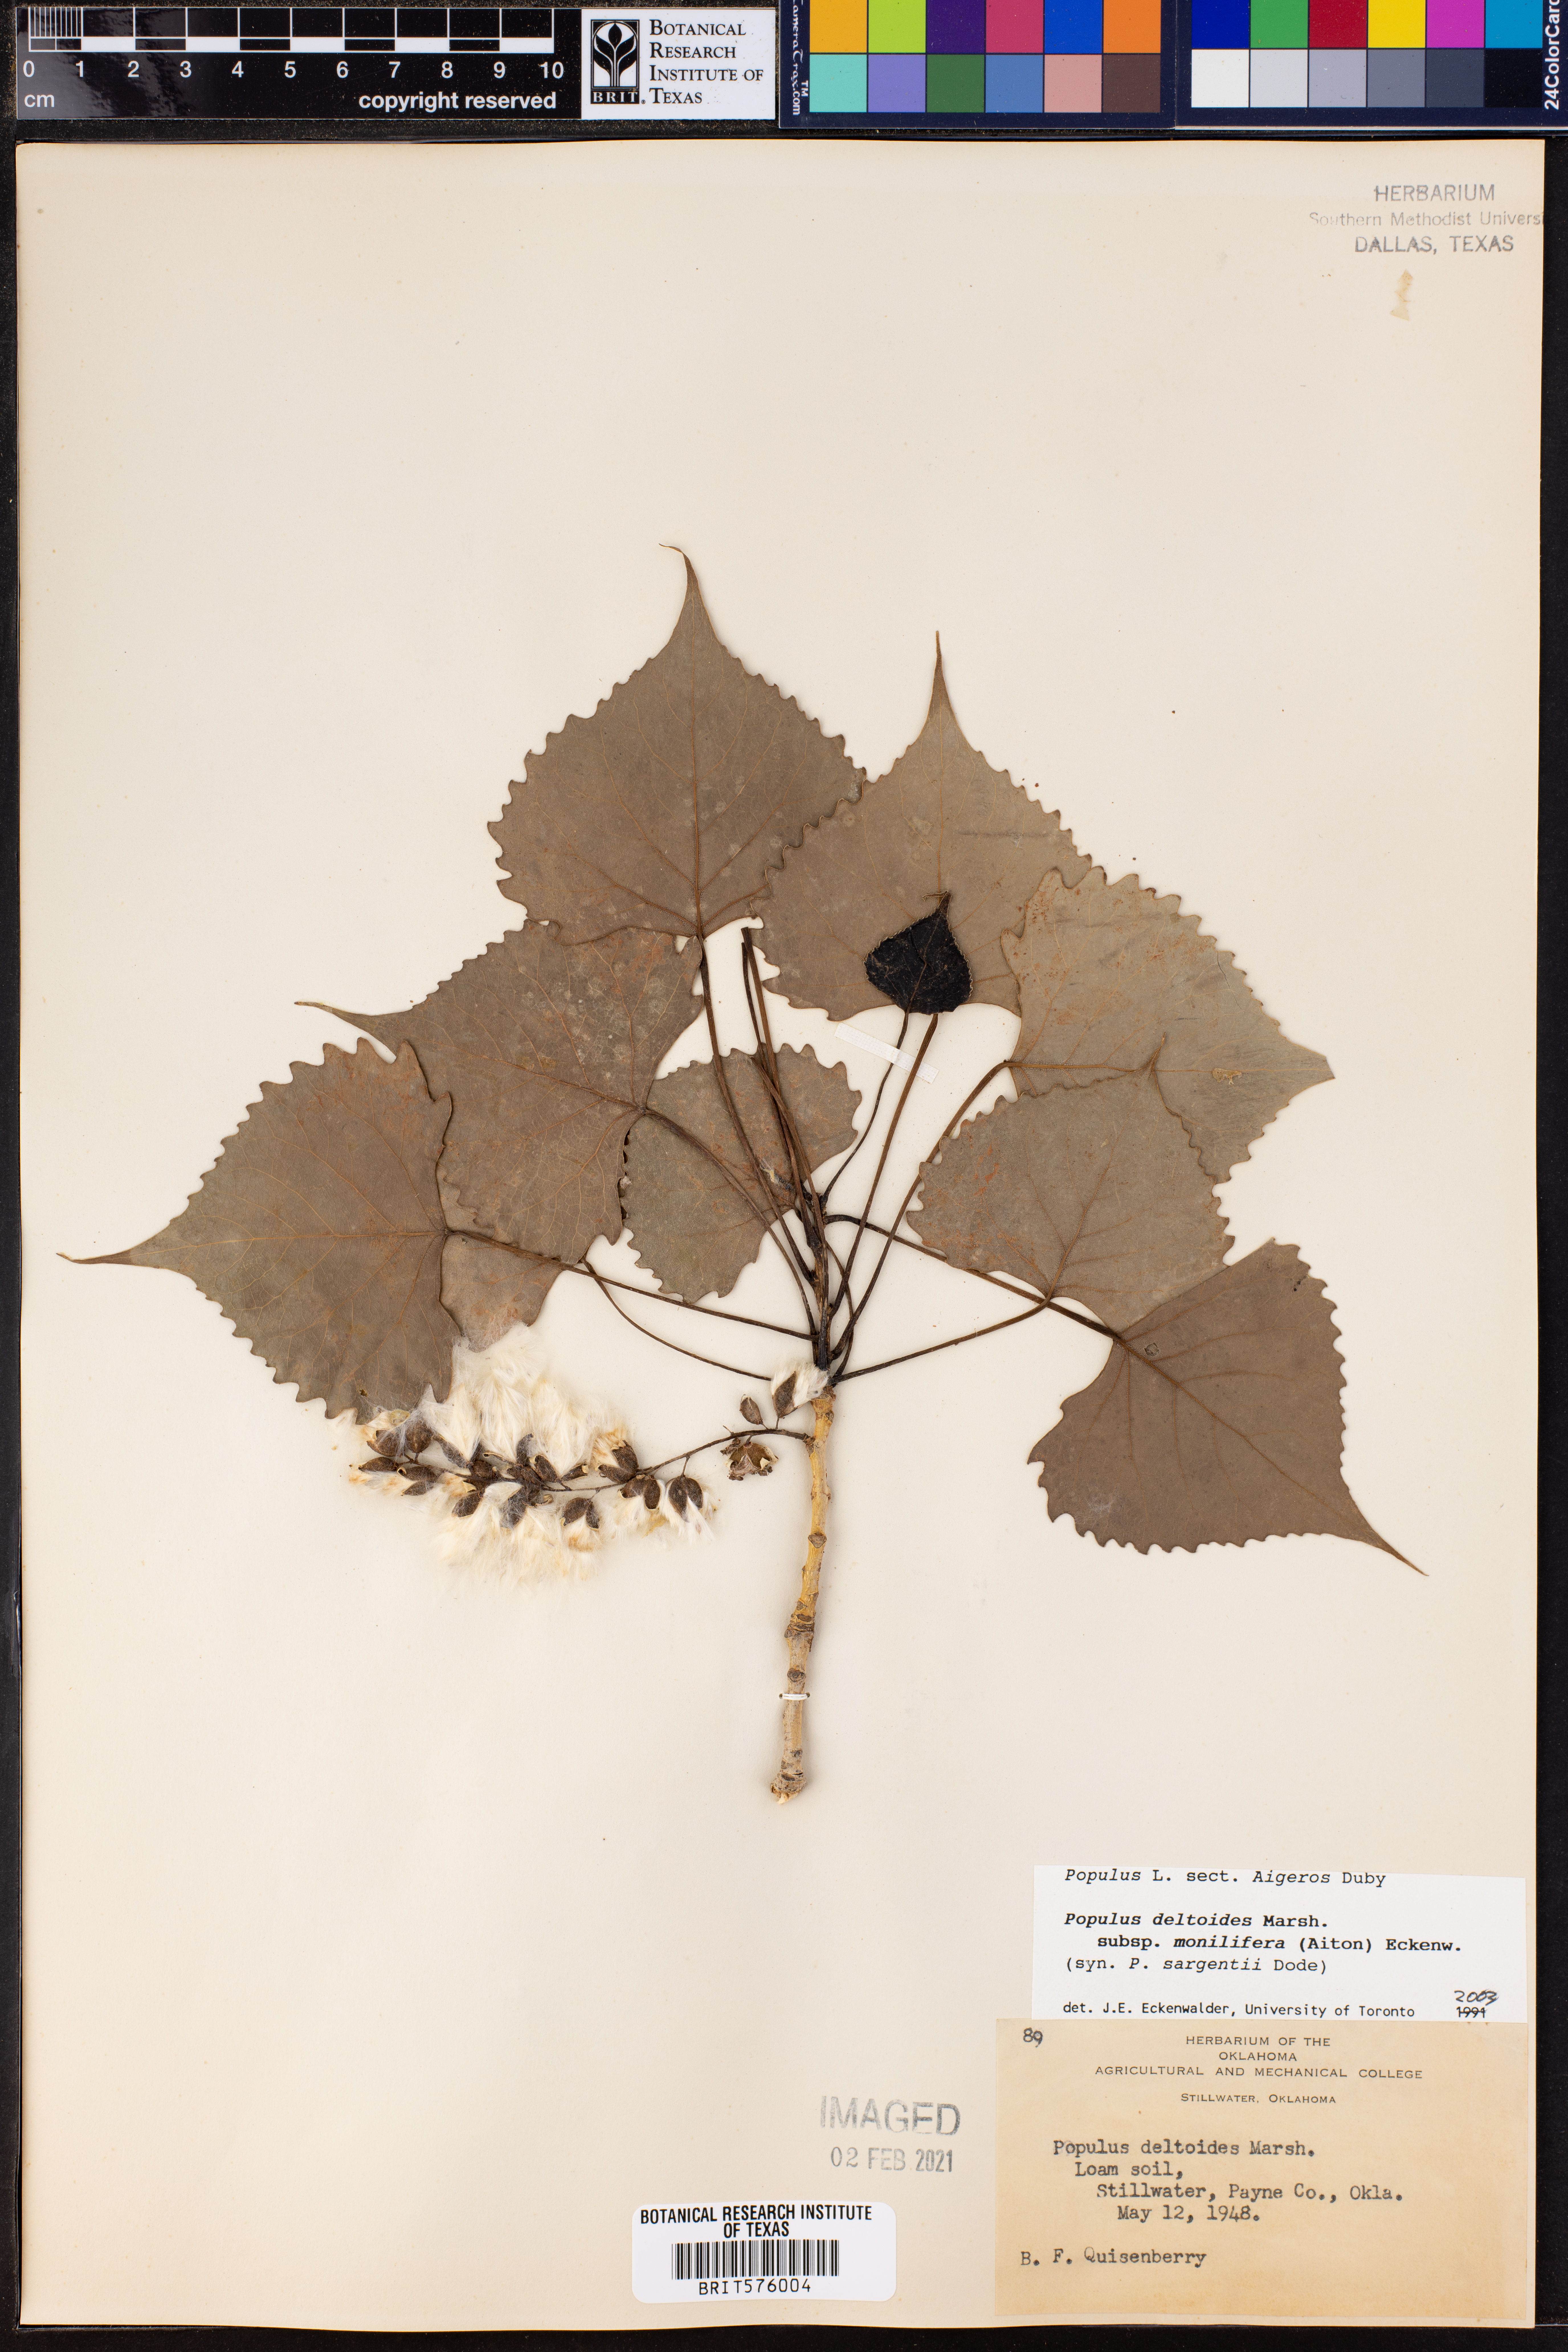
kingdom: Plantae
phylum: Tracheophyta
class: Magnoliopsida
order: Malpighiales
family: Salicaceae
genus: Populus
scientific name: Populus deltoides
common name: Eastern cottonwood
